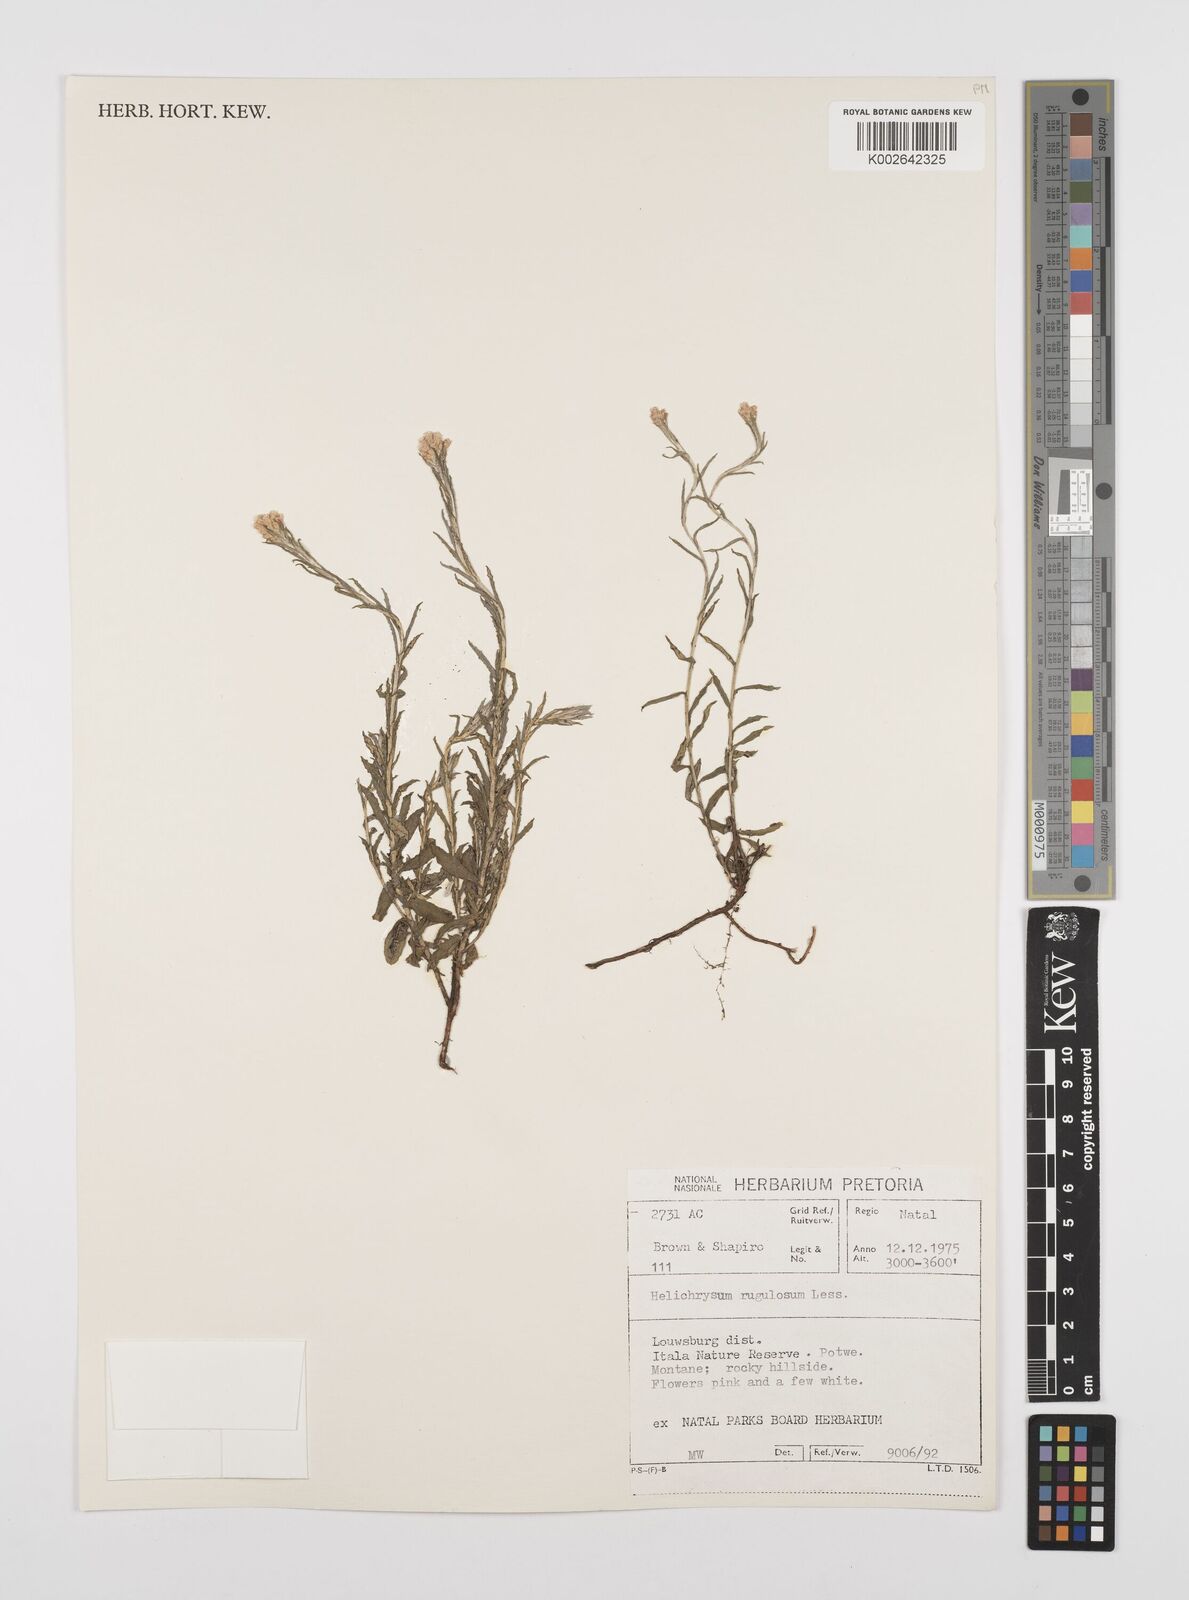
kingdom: Plantae
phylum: Tracheophyta
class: Magnoliopsida
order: Asterales
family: Asteraceae
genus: Helichrysum
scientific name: Helichrysum rugulosum
